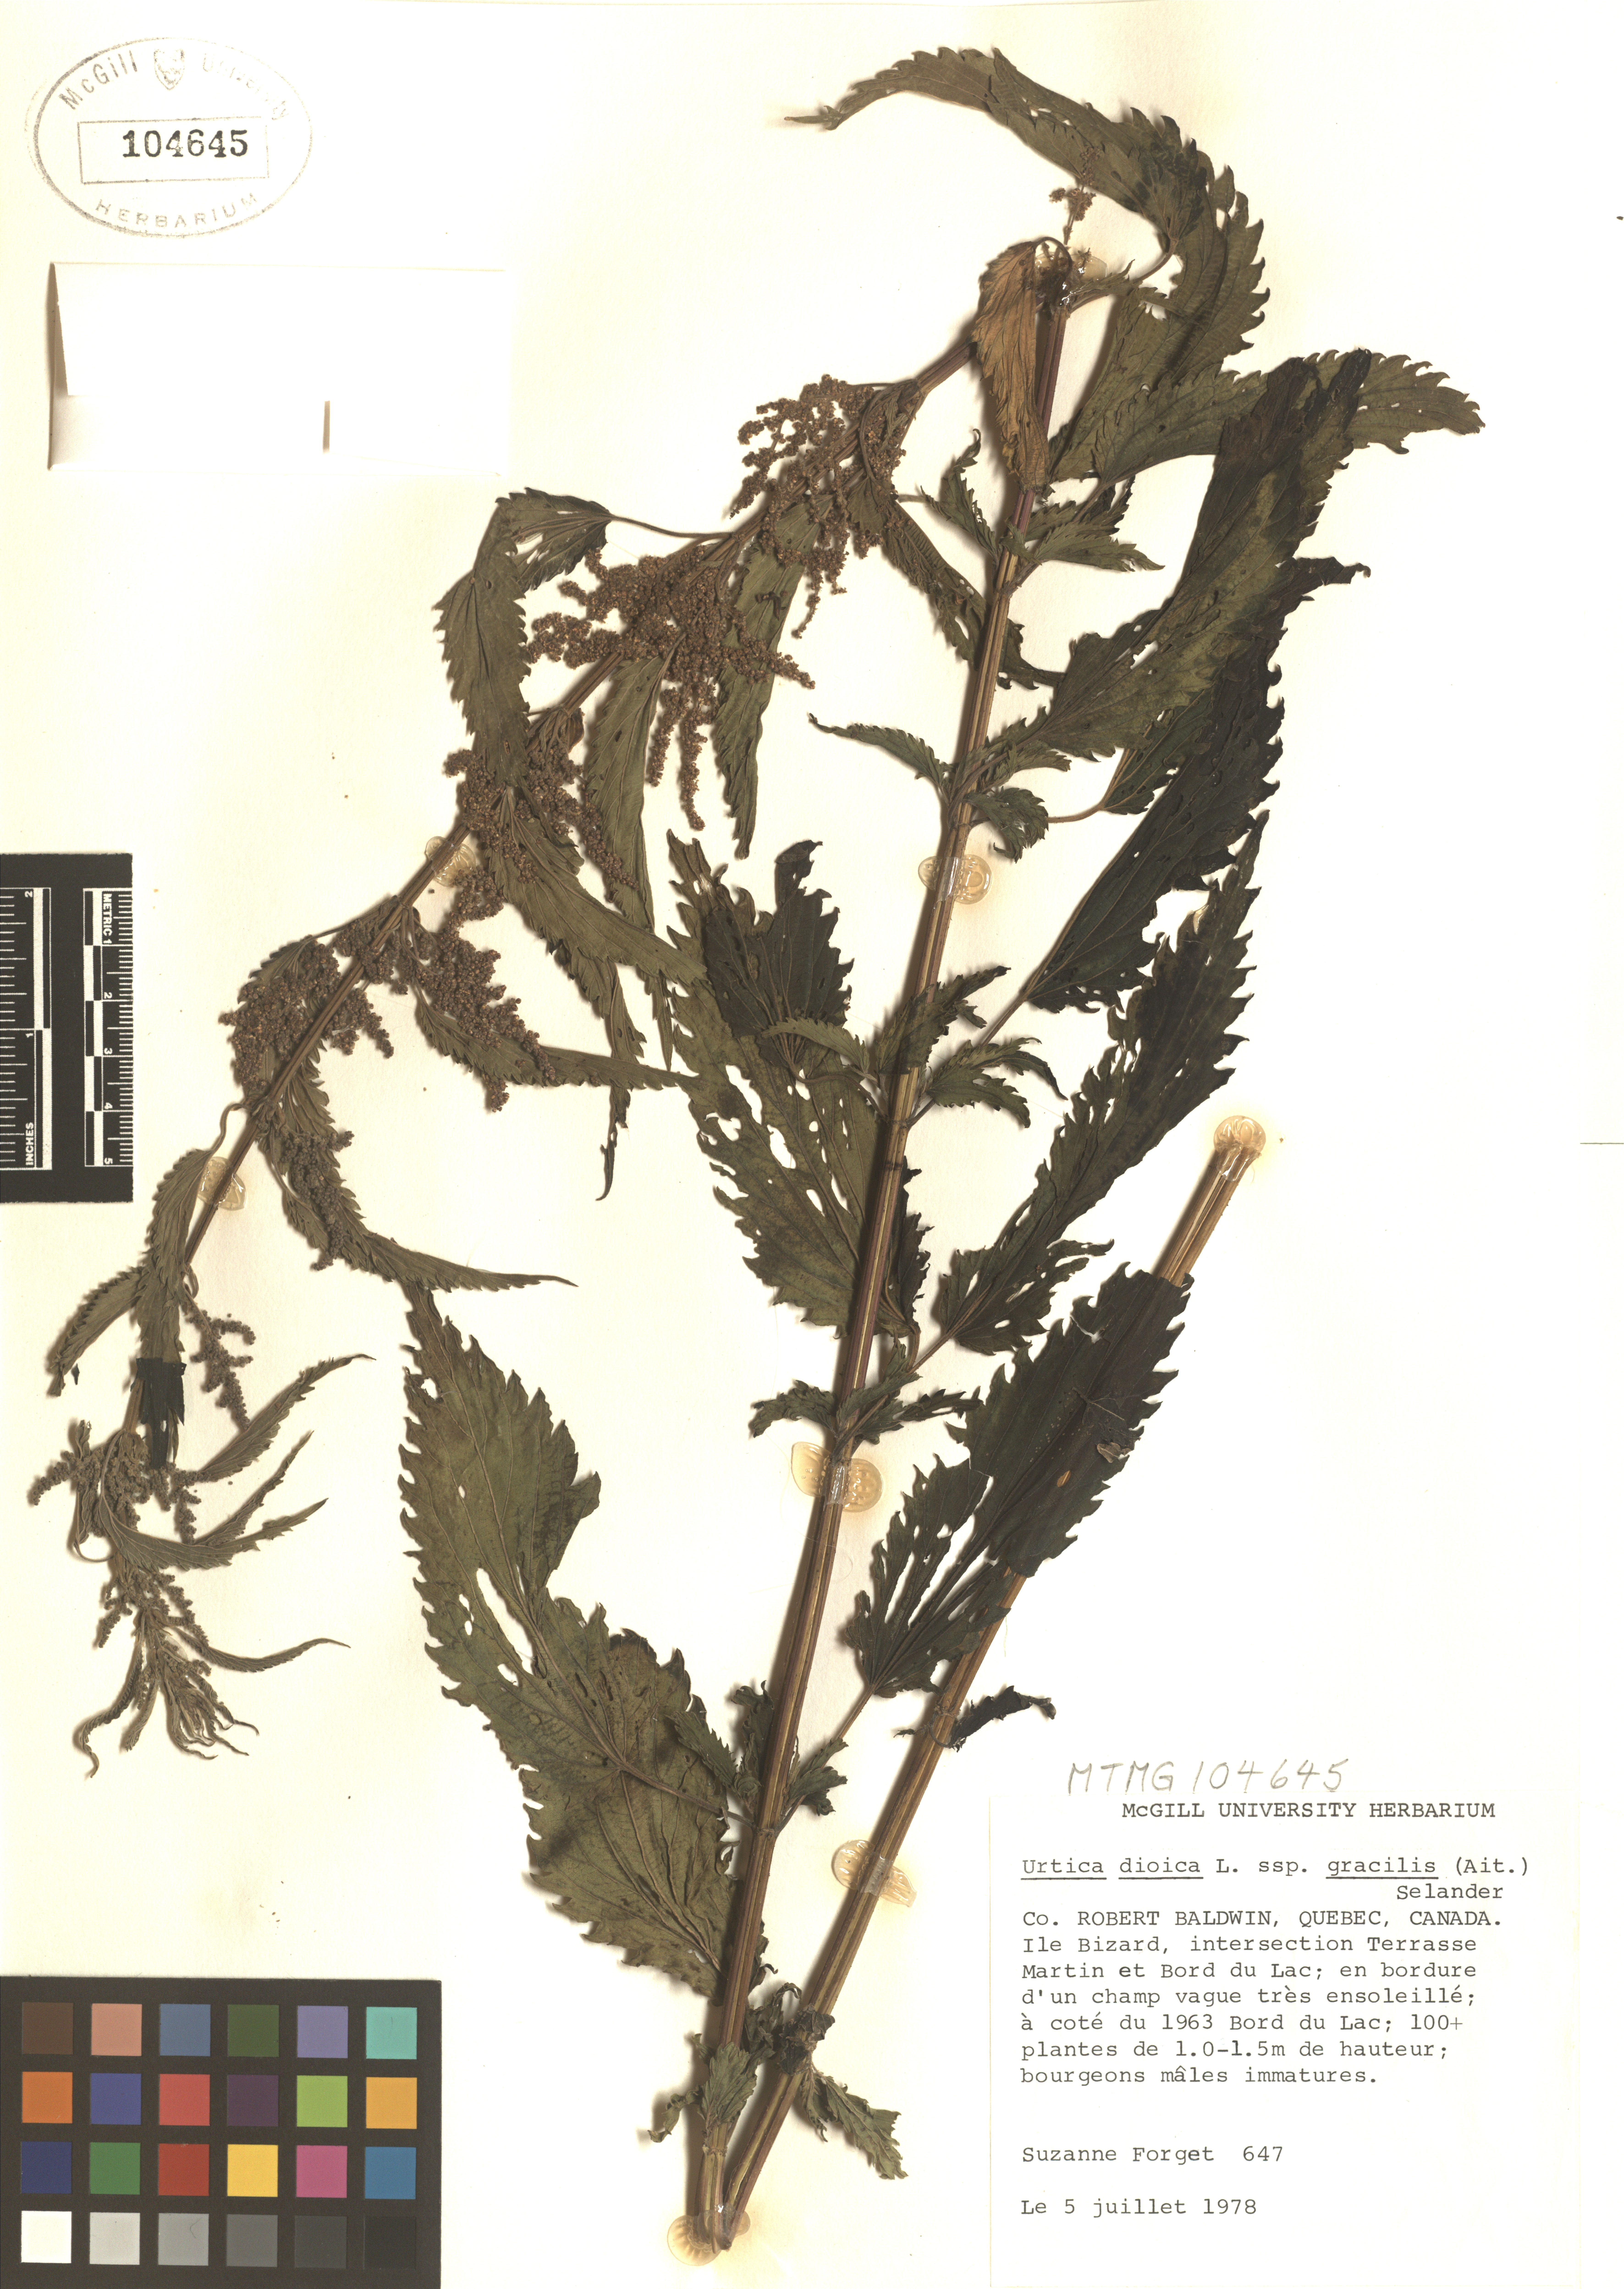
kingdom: Plantae
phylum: Tracheophyta
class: Magnoliopsida
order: Rosales
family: Urticaceae
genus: Urtica
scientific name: Urtica gracilis
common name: Slender stinging nettle
